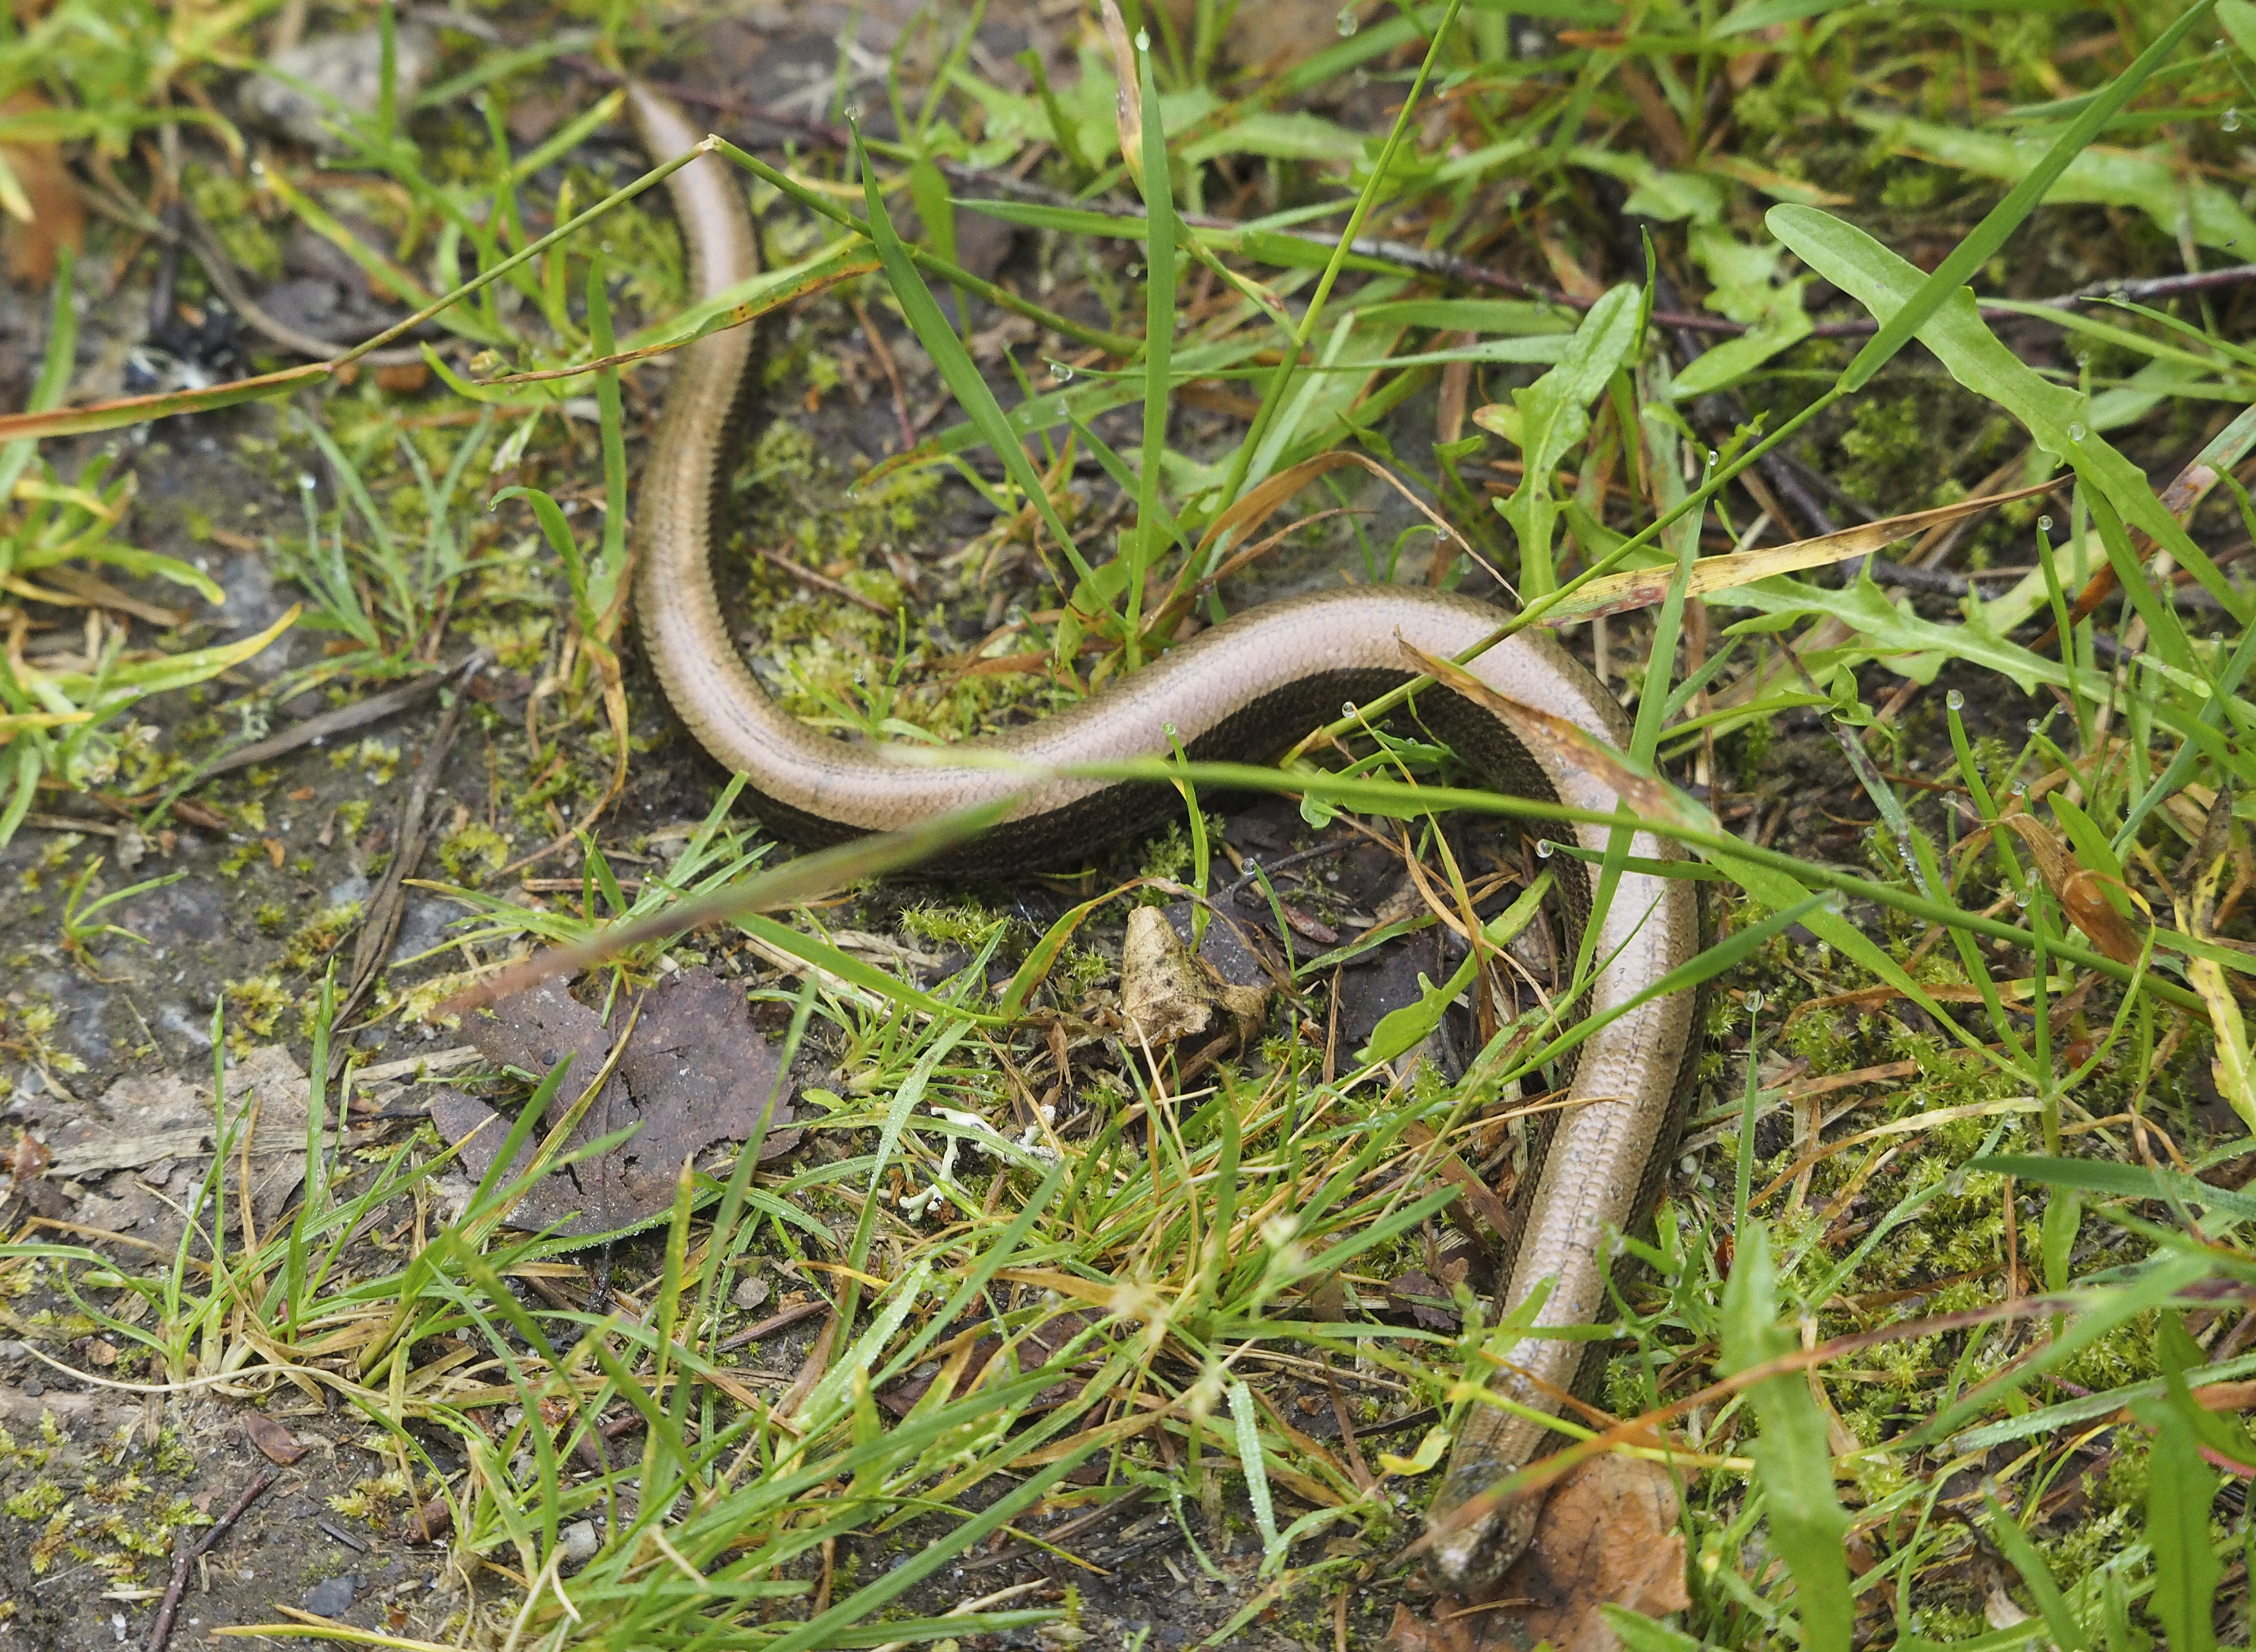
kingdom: Animalia
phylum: Chordata
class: Squamata
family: Anguidae
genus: Anguis
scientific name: Anguis colchica
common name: Slow worm
